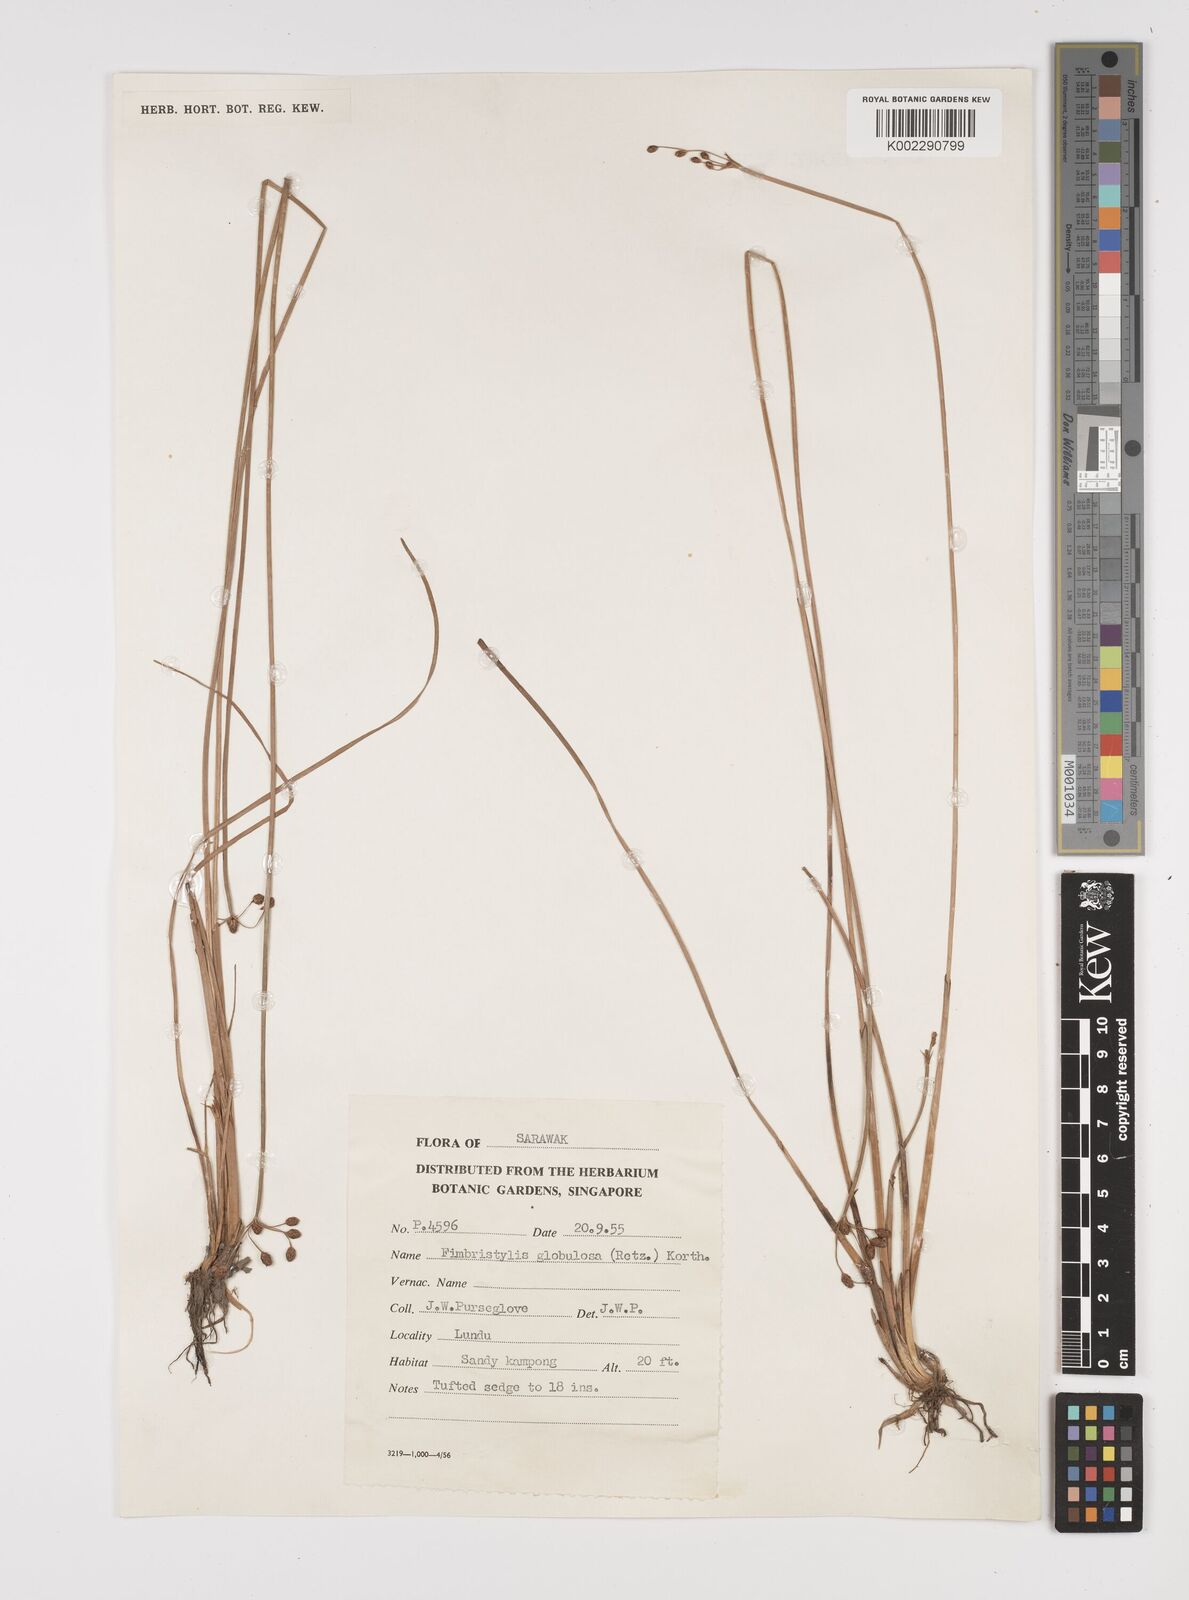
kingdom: Plantae
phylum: Tracheophyta
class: Liliopsida
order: Poales
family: Cyperaceae
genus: Fimbristylis
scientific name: Fimbristylis umbellaris
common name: Globular fimbristylis
